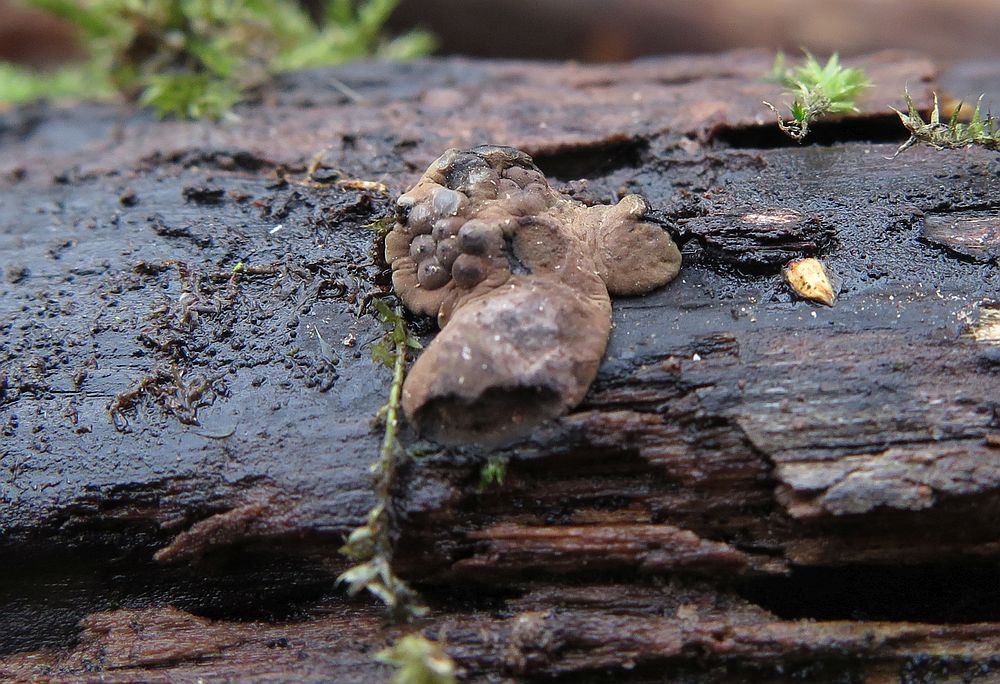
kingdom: Fungi
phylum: Ascomycota
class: Sordariomycetes
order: Xylariales
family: Hypoxylaceae
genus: Jackrogersella
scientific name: Jackrogersella multiformis
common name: foranderlig kulbær
